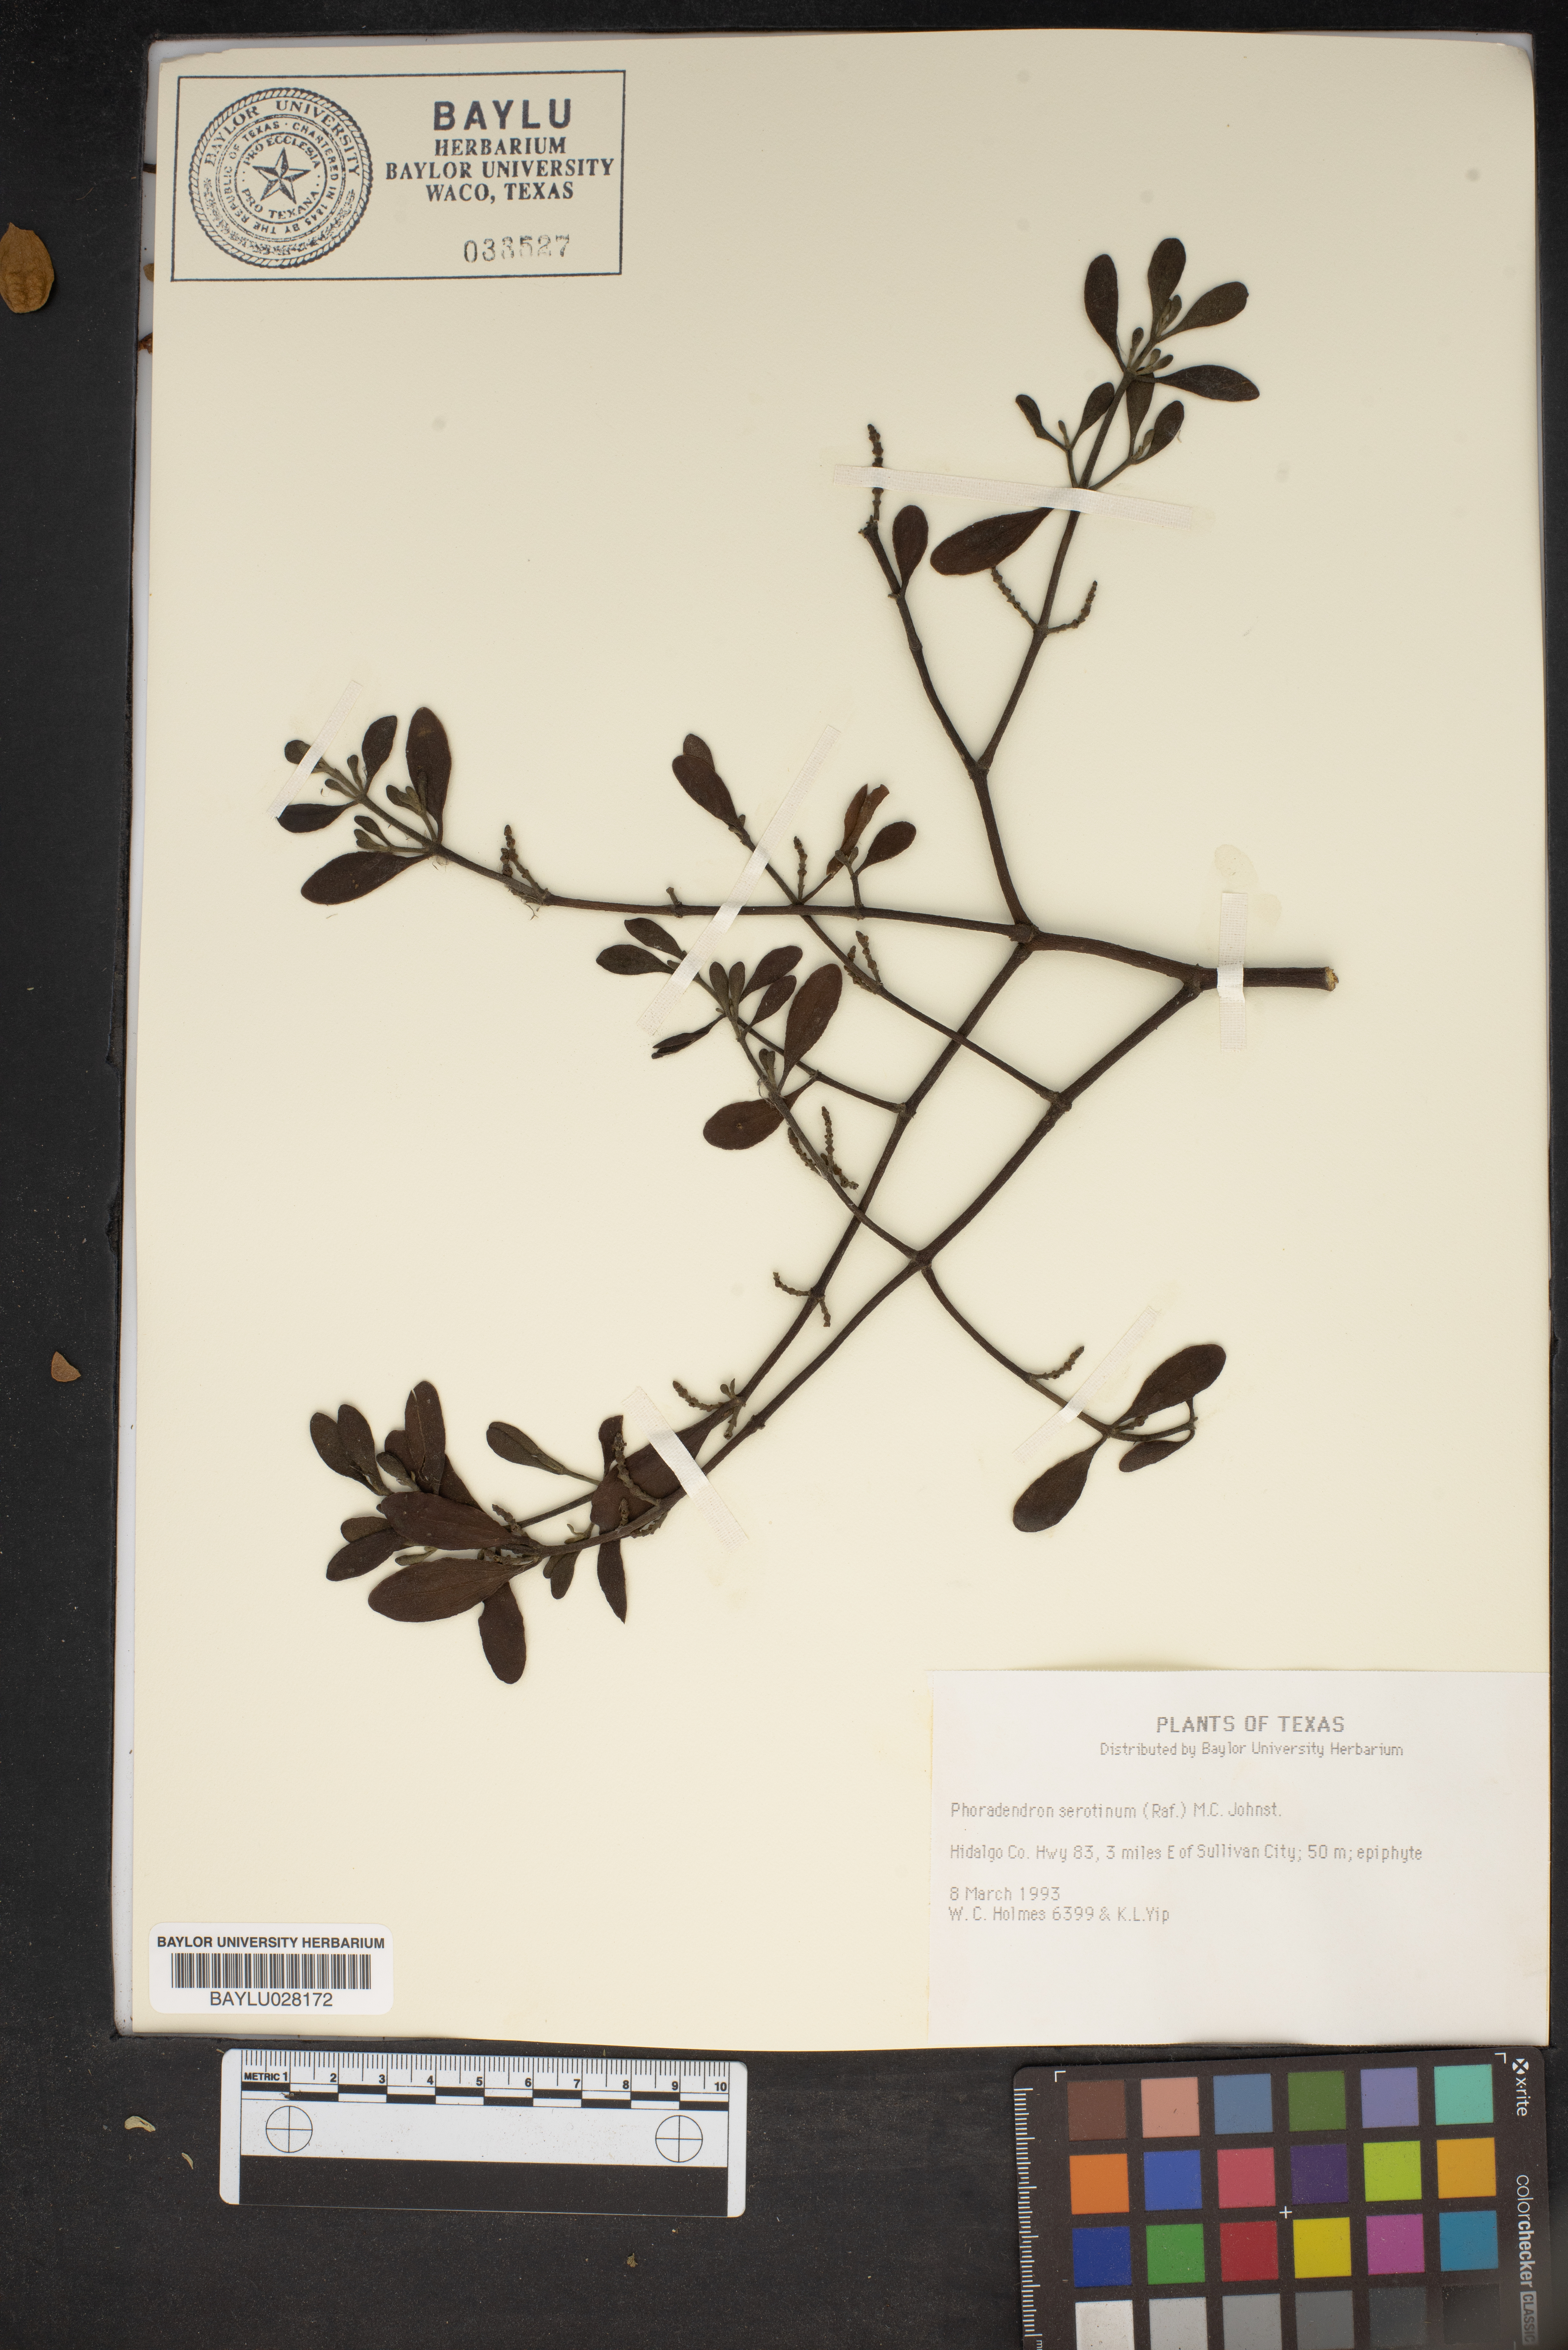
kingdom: Plantae
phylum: Tracheophyta
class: Magnoliopsida
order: Santalales
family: Viscaceae
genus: Phoradendron
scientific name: Phoradendron leucarpum
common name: Pacific mistletoe
